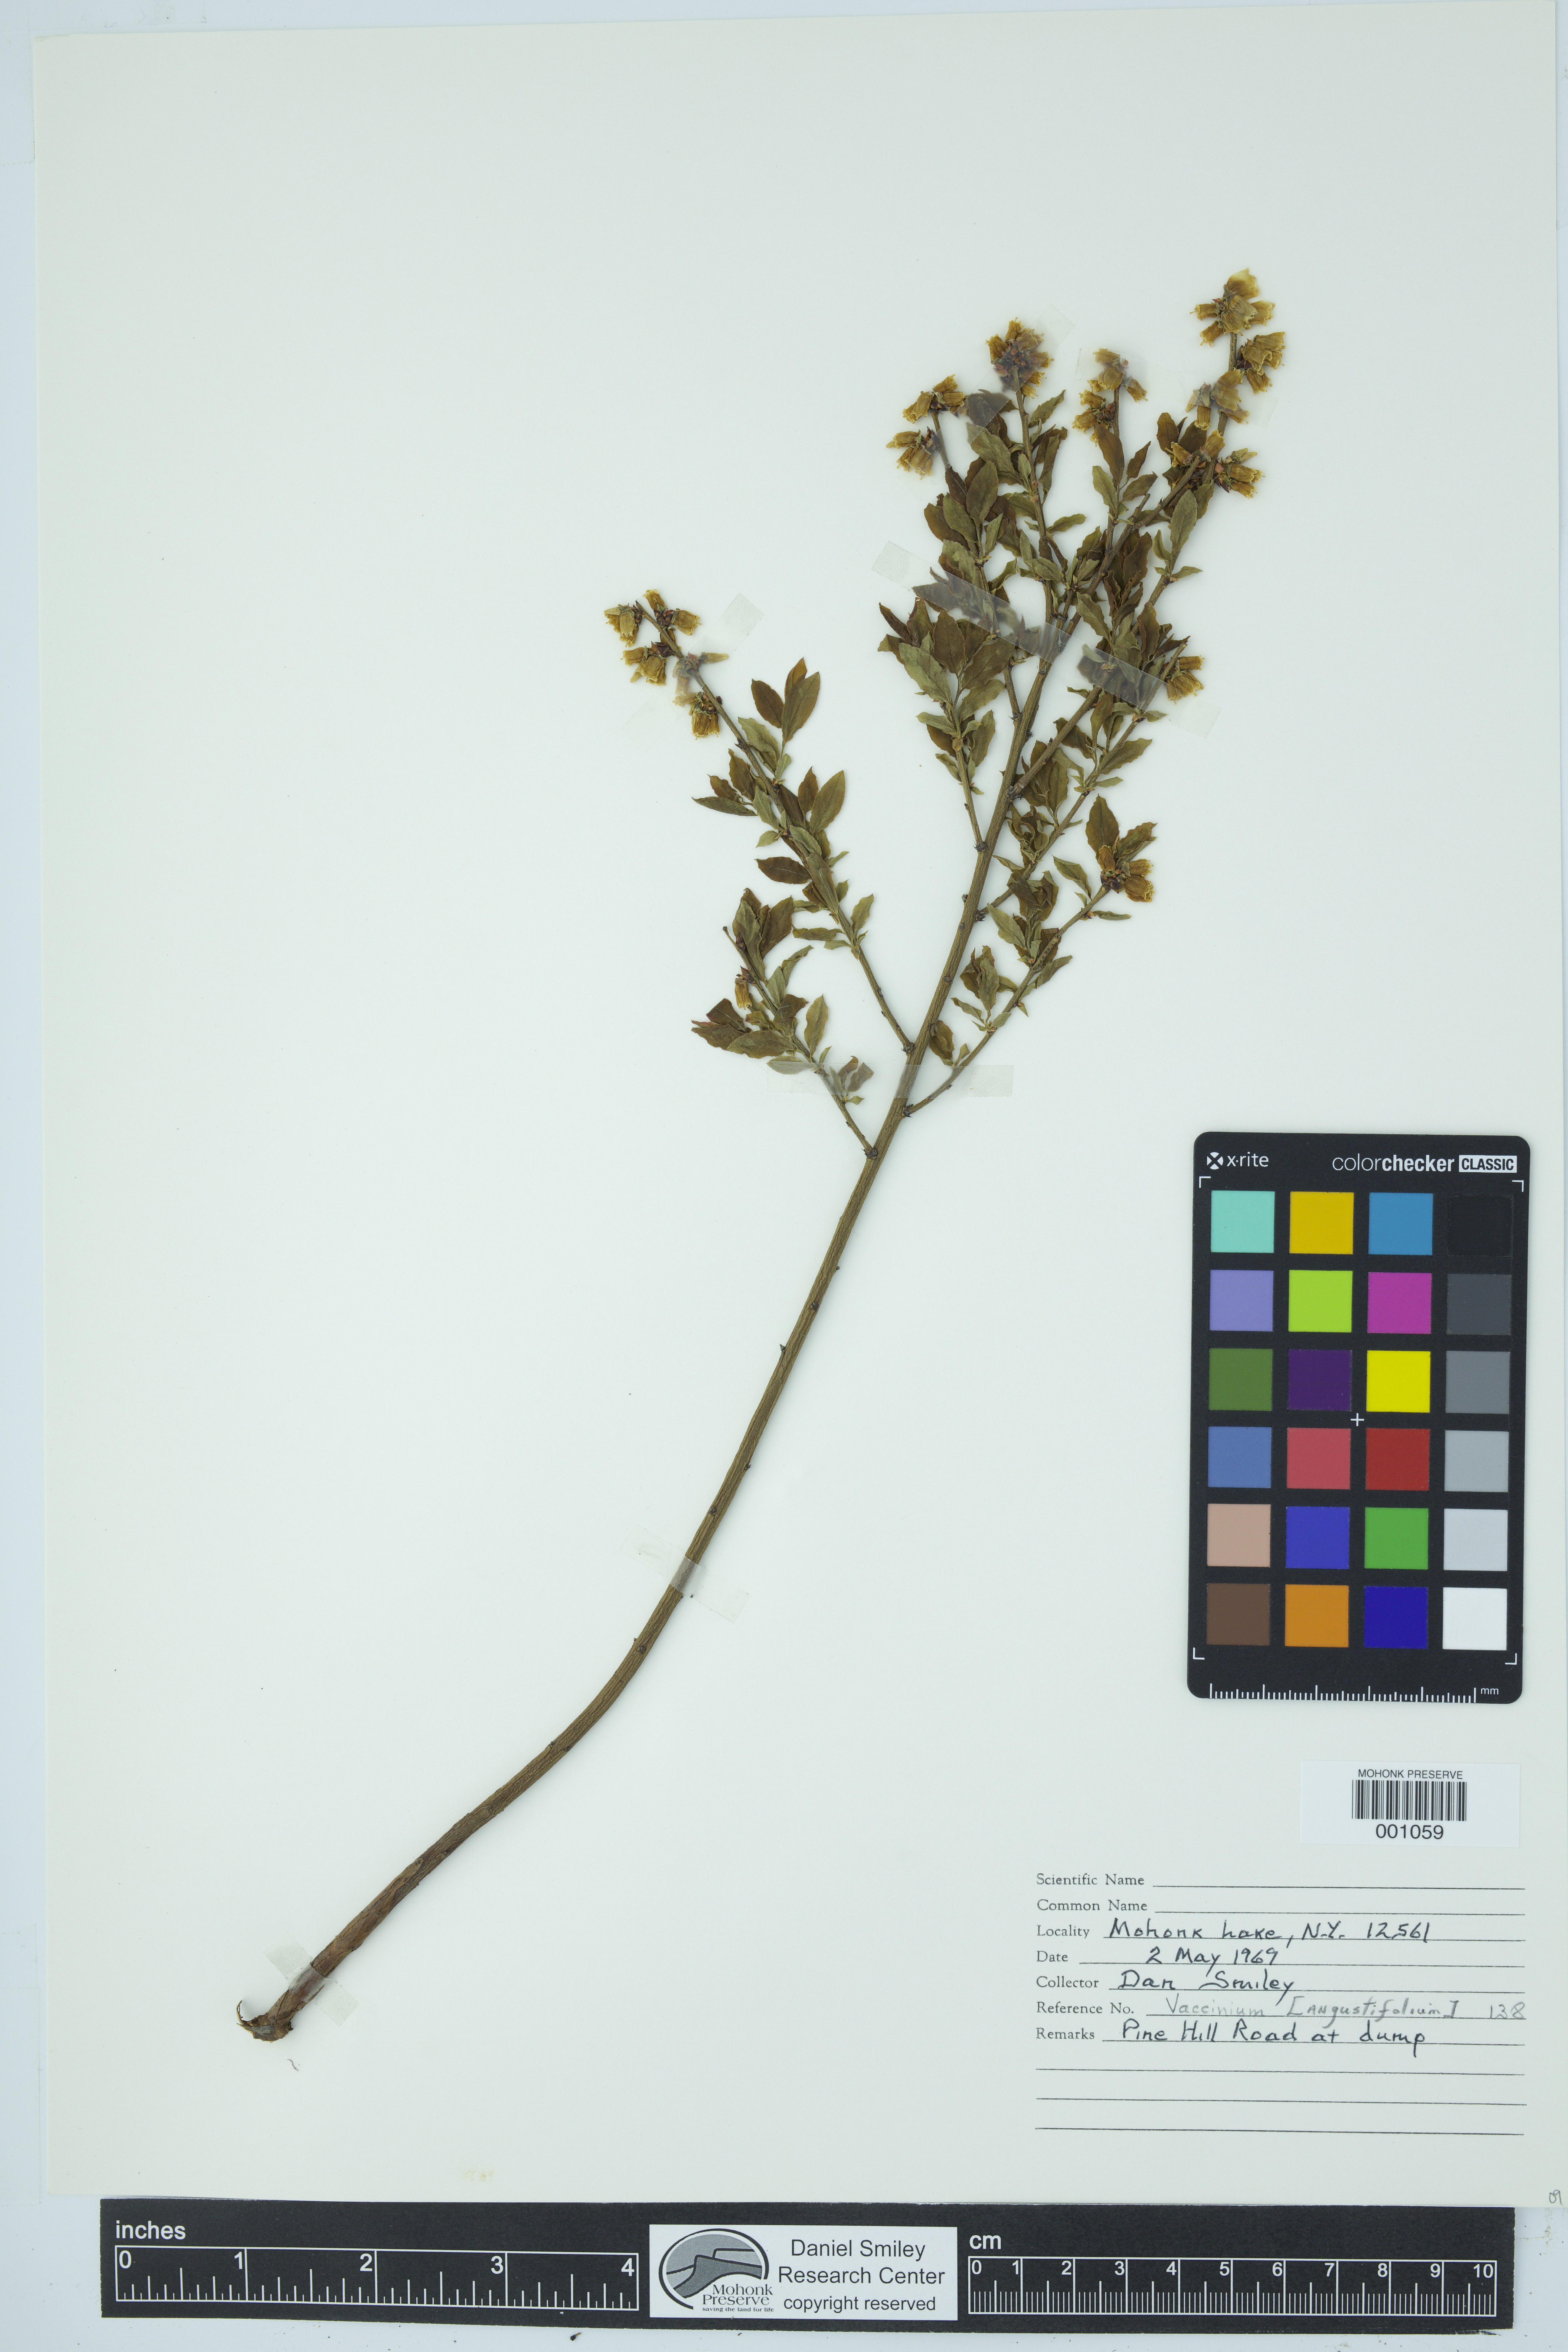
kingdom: Plantae
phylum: Tracheophyta
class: Magnoliopsida
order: Ericales
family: Ericaceae
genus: Vaccinium
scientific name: Vaccinium angustifolium
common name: Early lowbush blueberry
